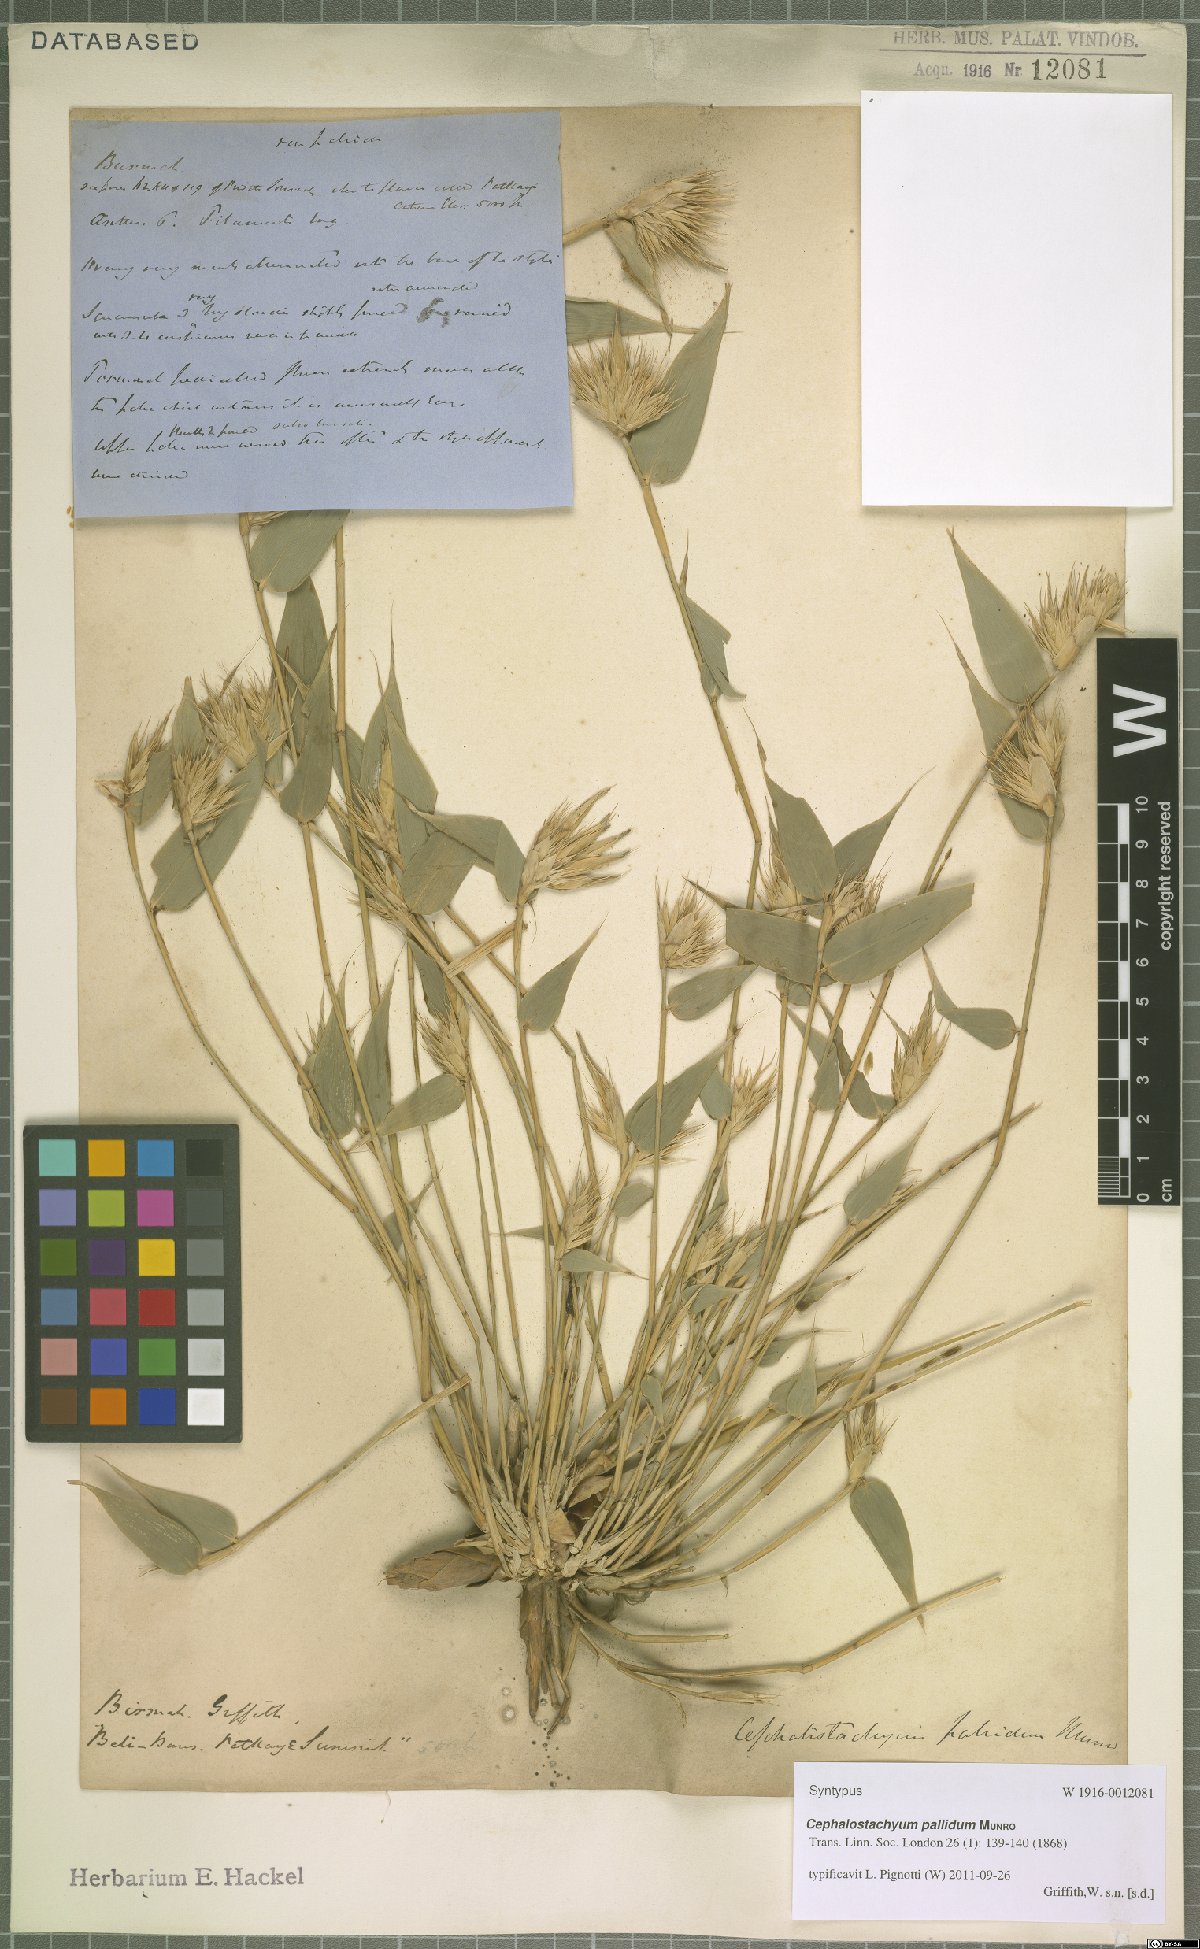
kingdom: Plantae
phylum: Tracheophyta
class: Liliopsida
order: Poales
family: Poaceae
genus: Cephalostachyum
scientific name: Cephalostachyum pallidum
